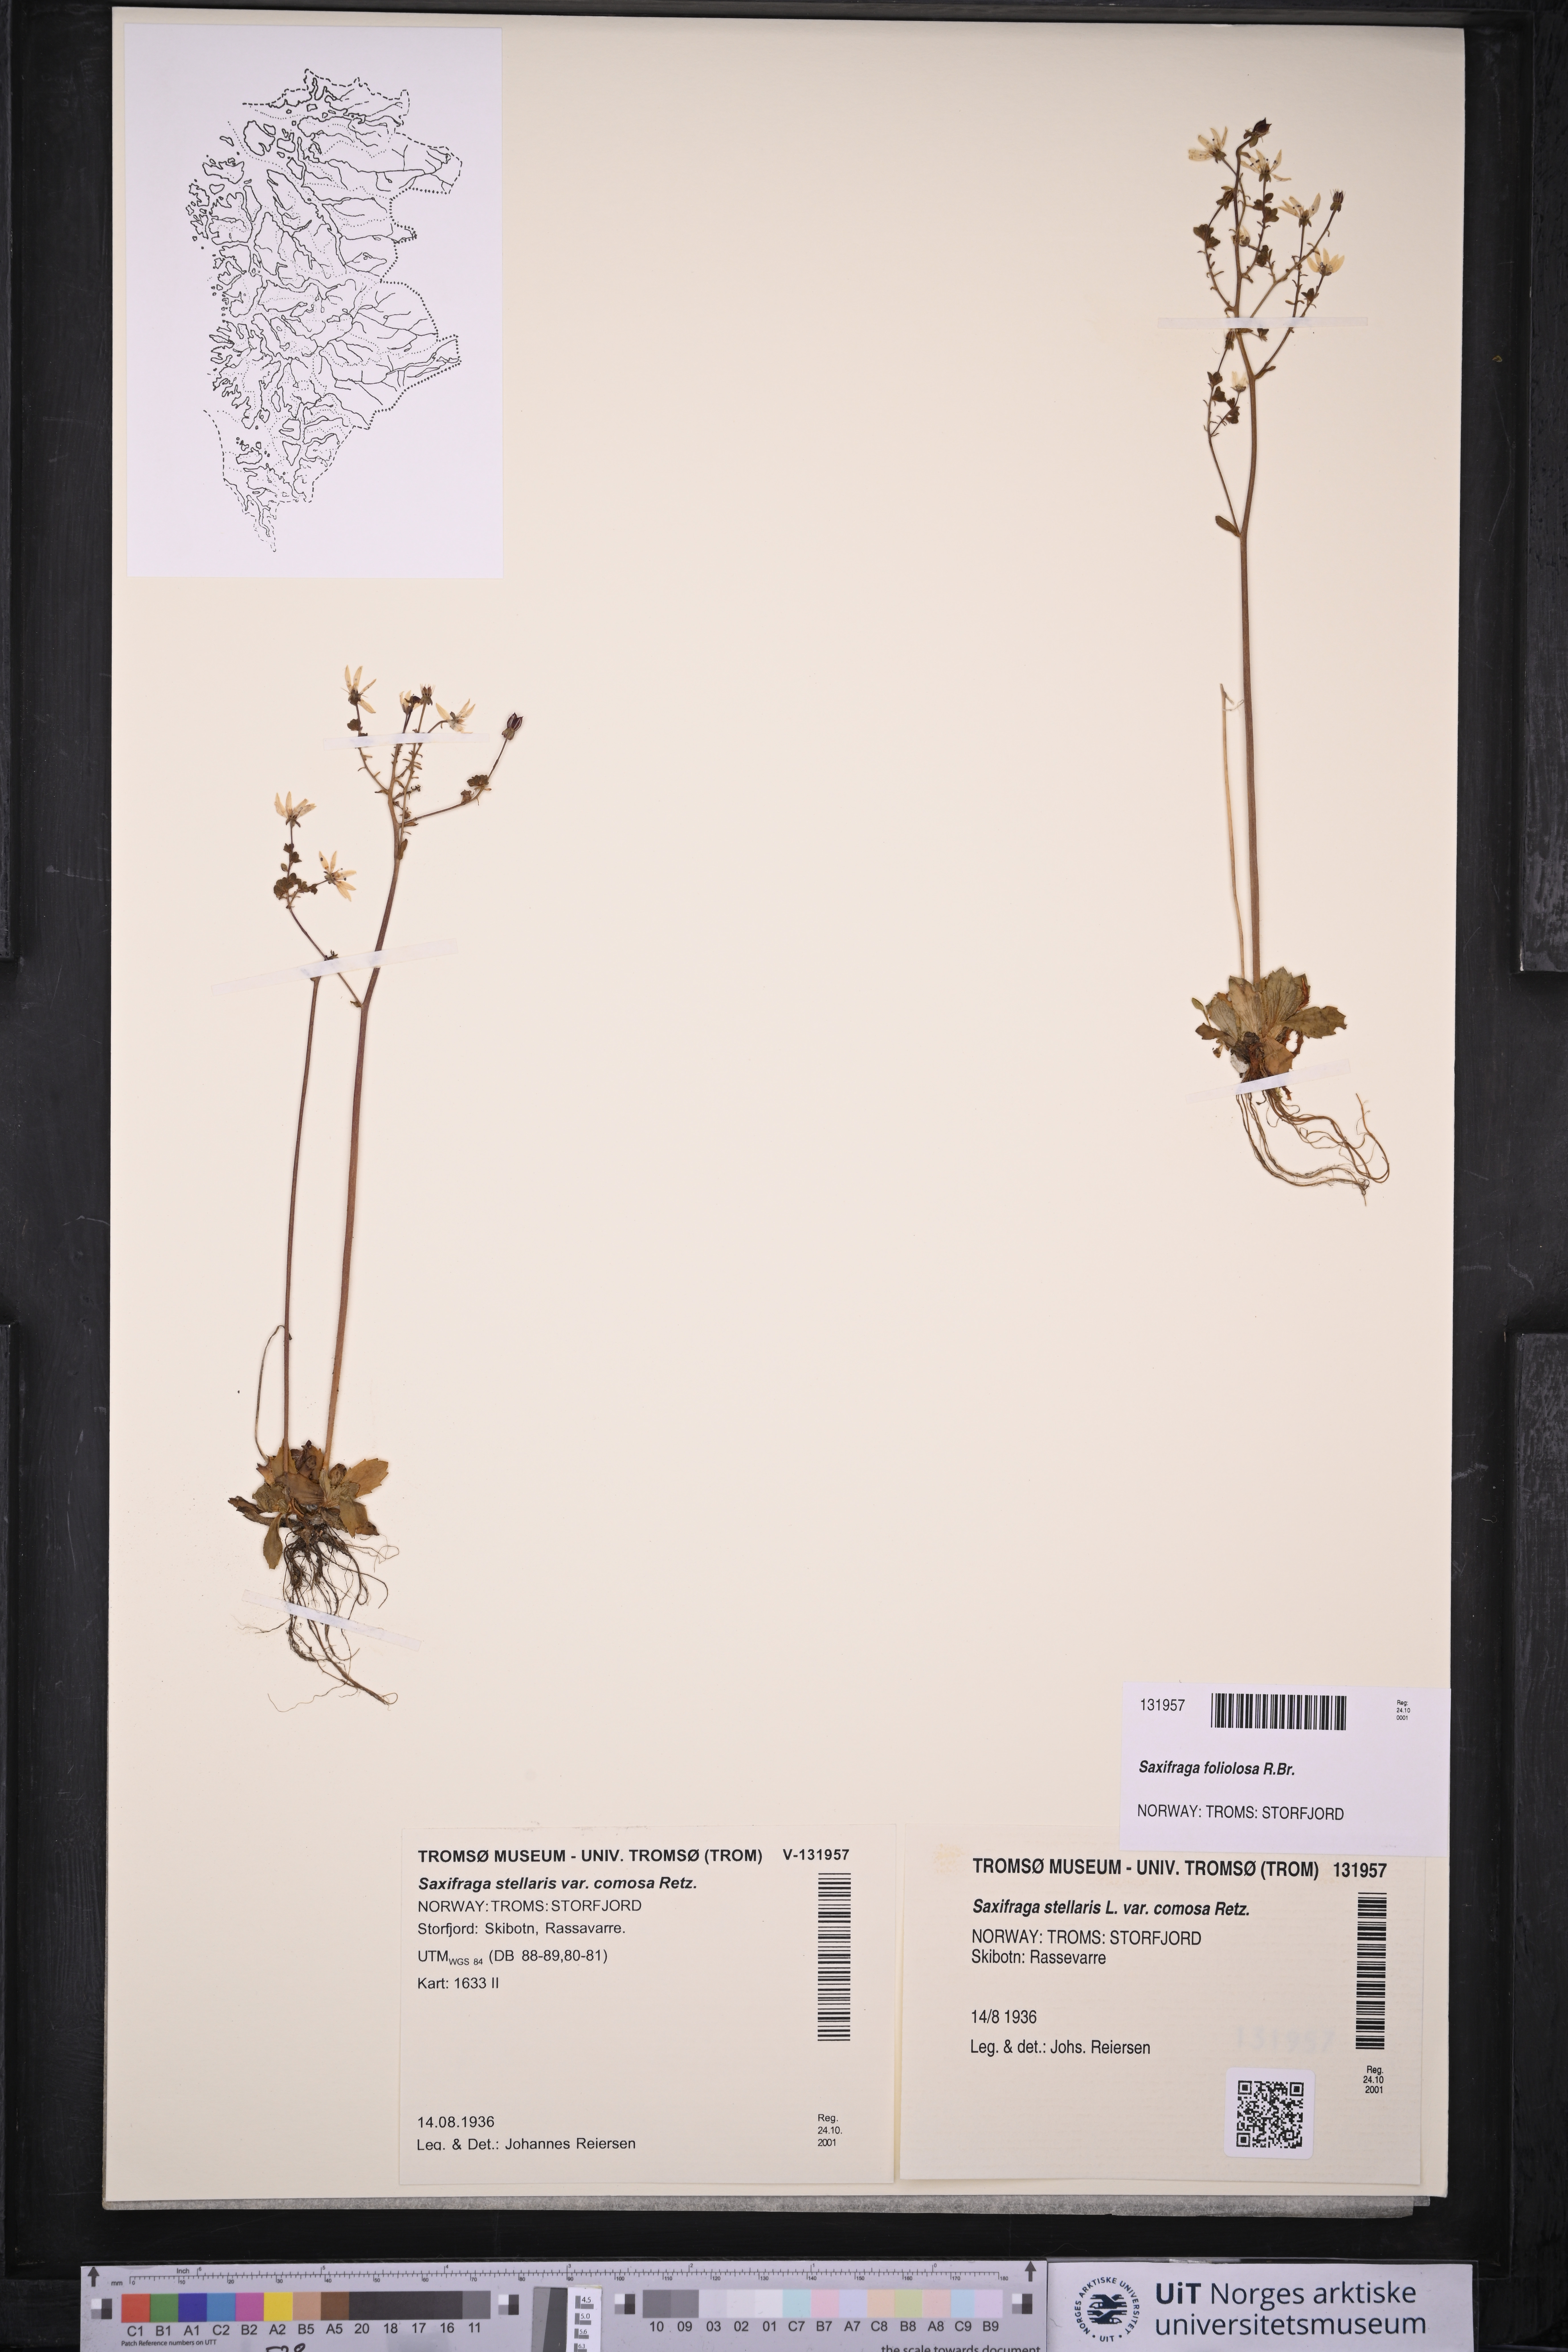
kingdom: Plantae
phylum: Tracheophyta
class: Magnoliopsida
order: Saxifragales
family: Saxifragaceae
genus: Micranthes
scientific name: Micranthes foliolosa
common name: Leafystem saxifrage
